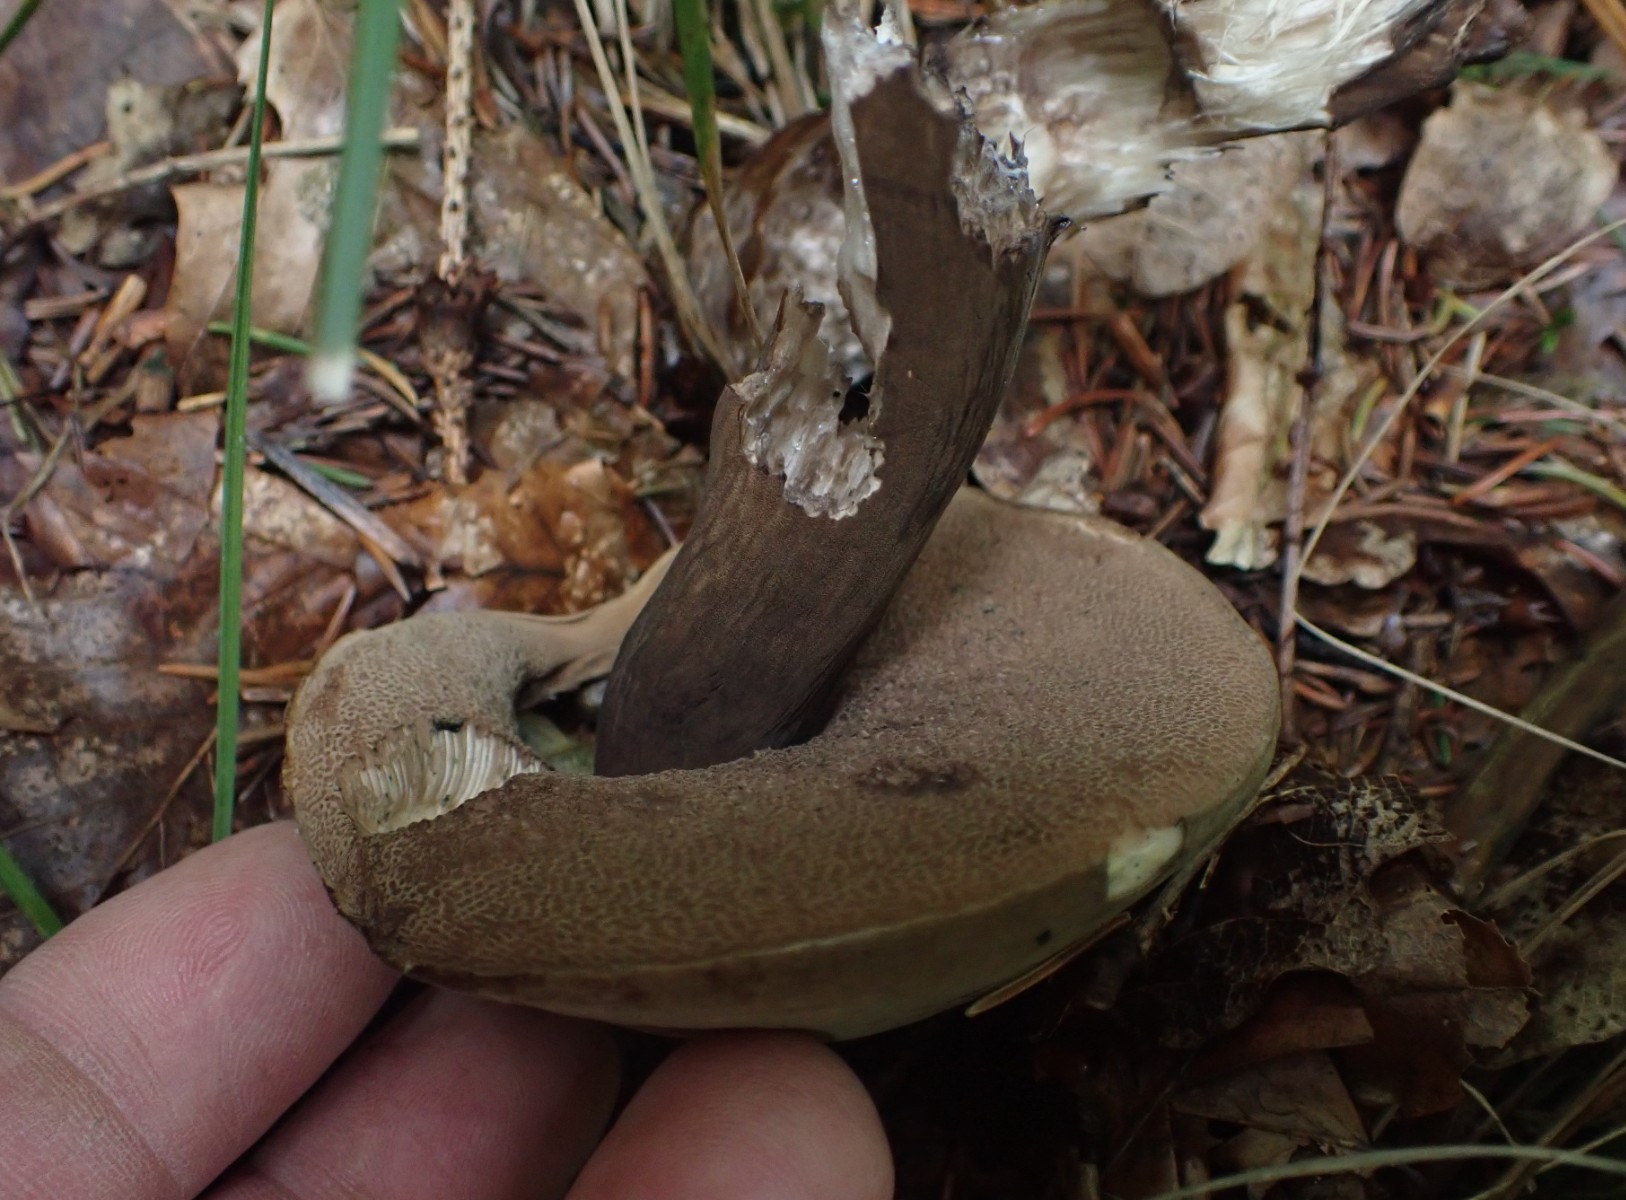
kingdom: Fungi
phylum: Basidiomycota
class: Agaricomycetes
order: Boletales
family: Boletaceae
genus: Porphyrellus
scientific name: Porphyrellus porphyrosporus
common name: sodrørhat
